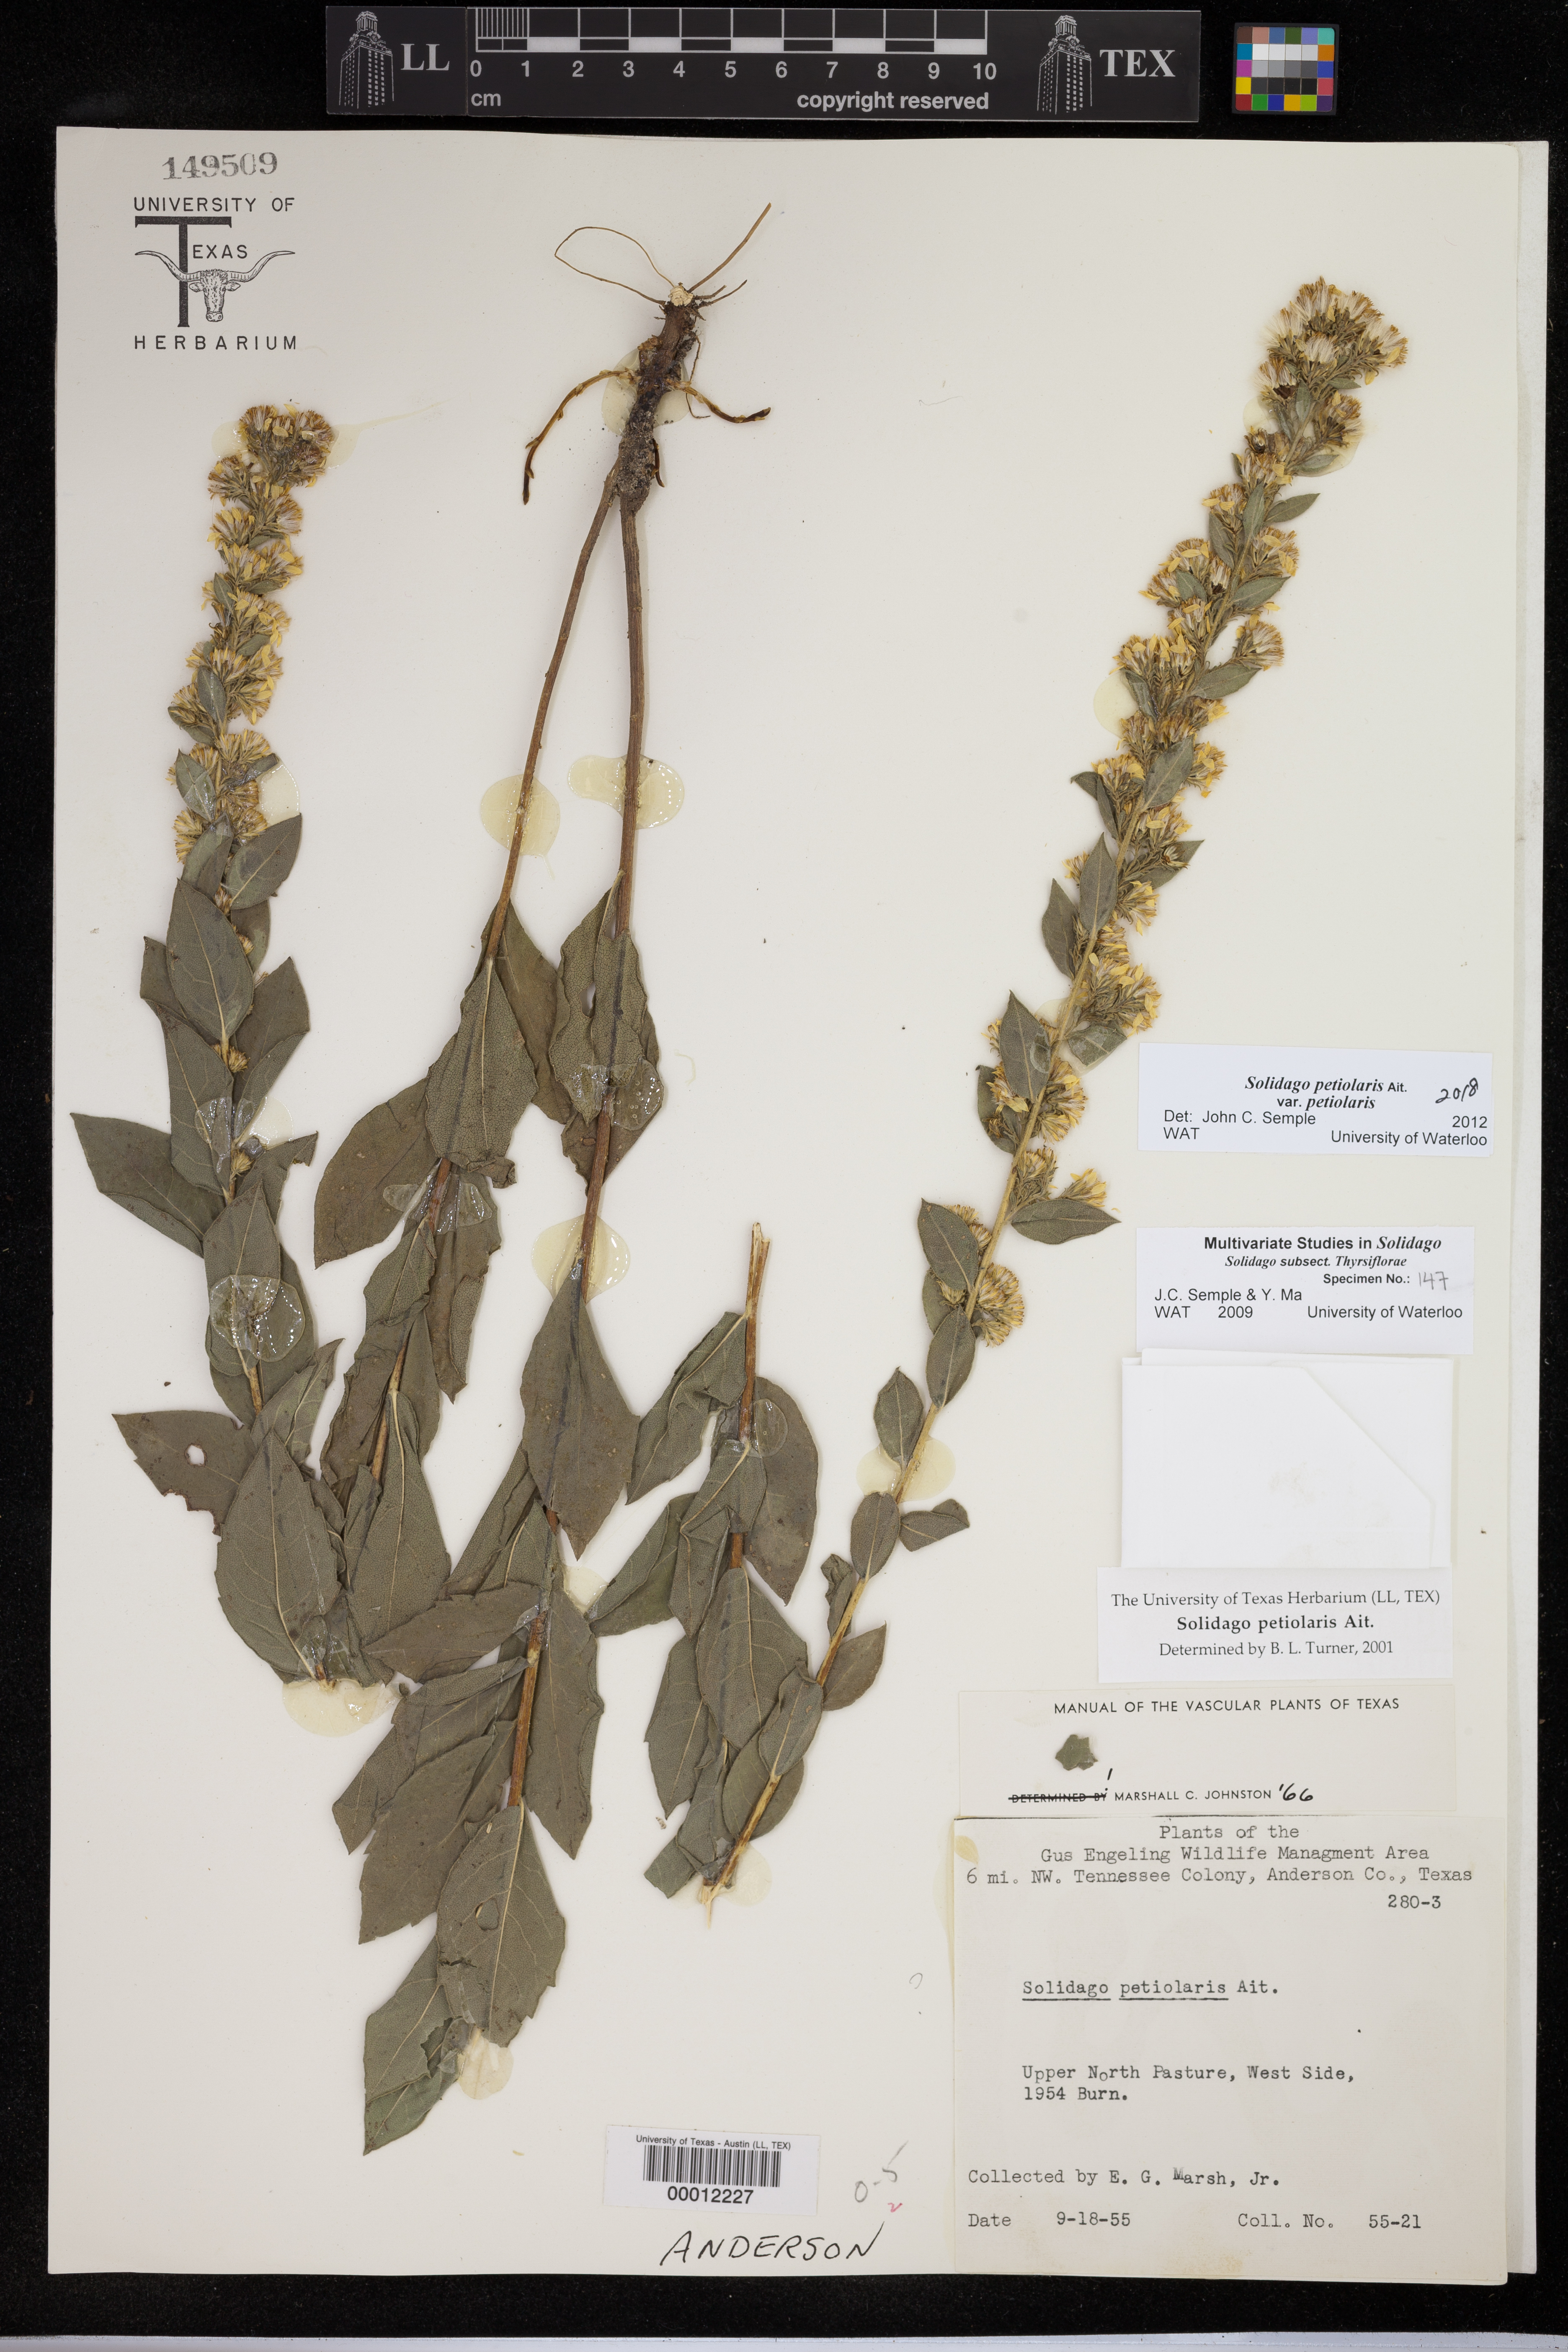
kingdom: Plantae
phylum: Tracheophyta
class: Magnoliopsida
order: Asterales
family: Asteraceae
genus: Solidago
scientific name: Solidago petiolaris
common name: Downy ragged goldenrod
